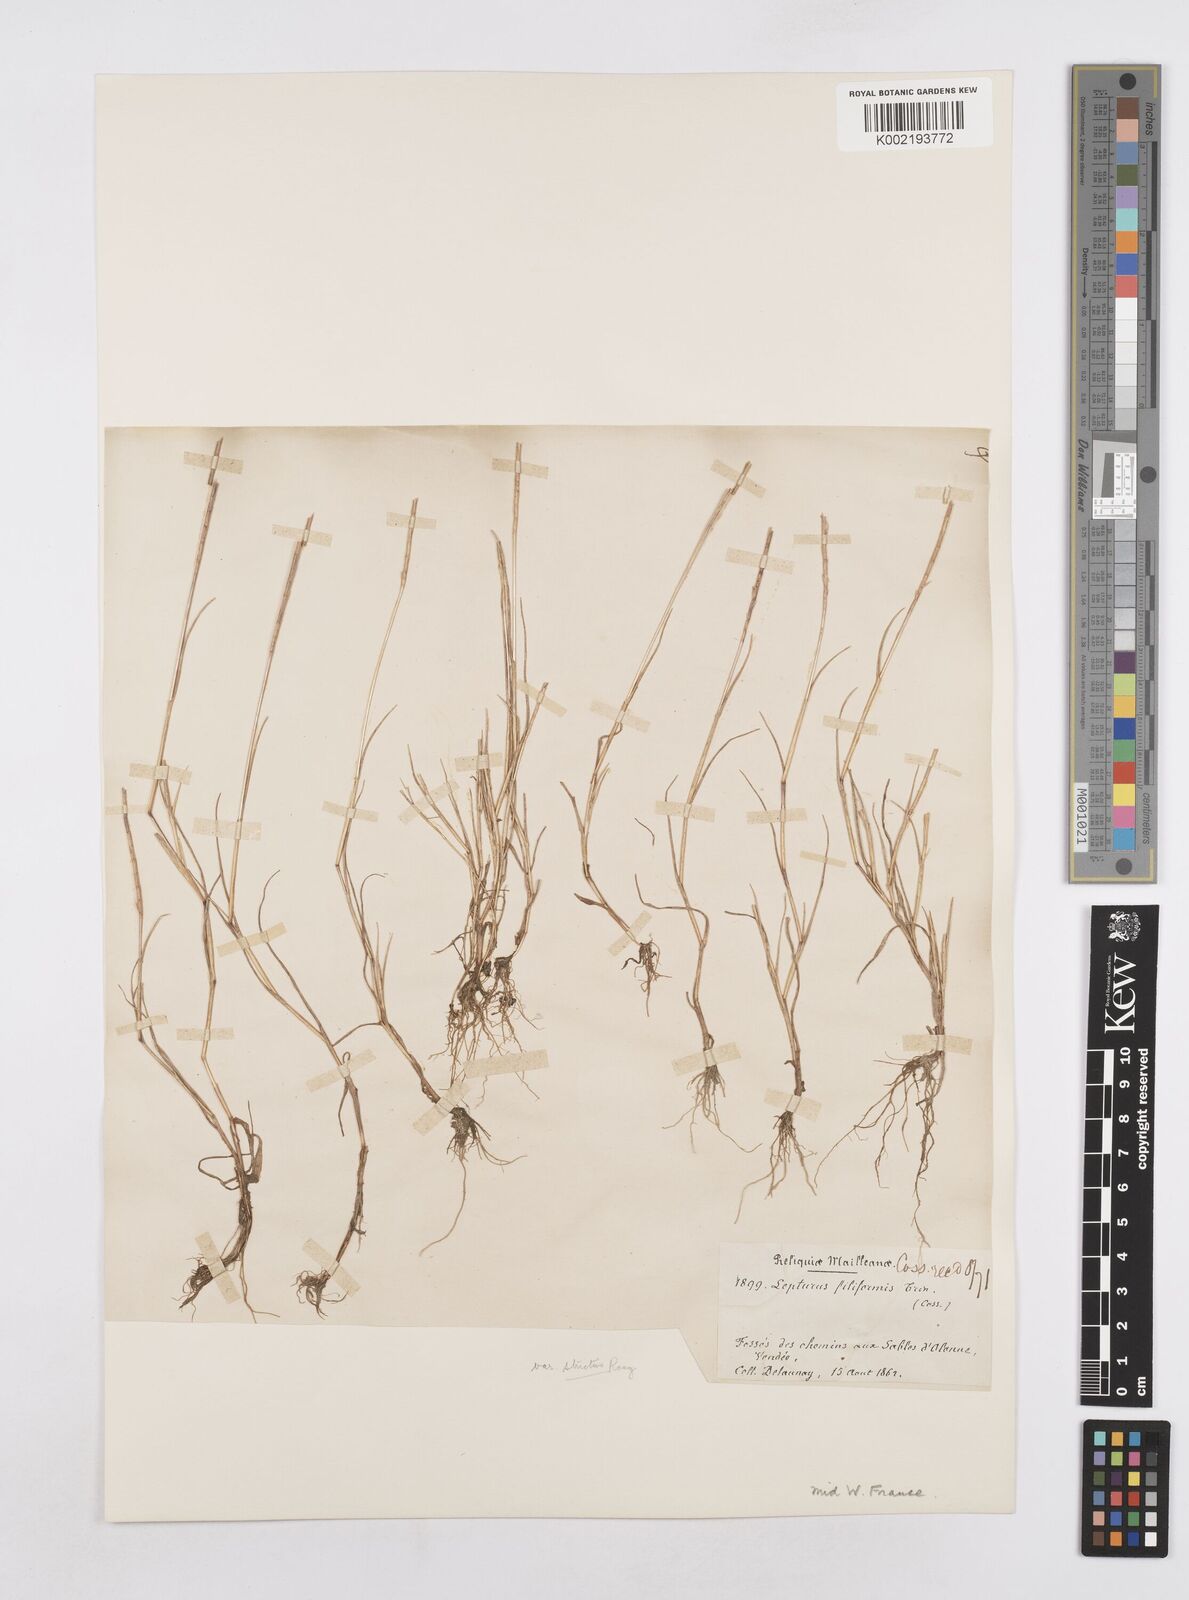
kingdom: Plantae
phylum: Tracheophyta
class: Liliopsida
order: Poales
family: Poaceae
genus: Parapholis
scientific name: Parapholis strigosa
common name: Hard-grass
